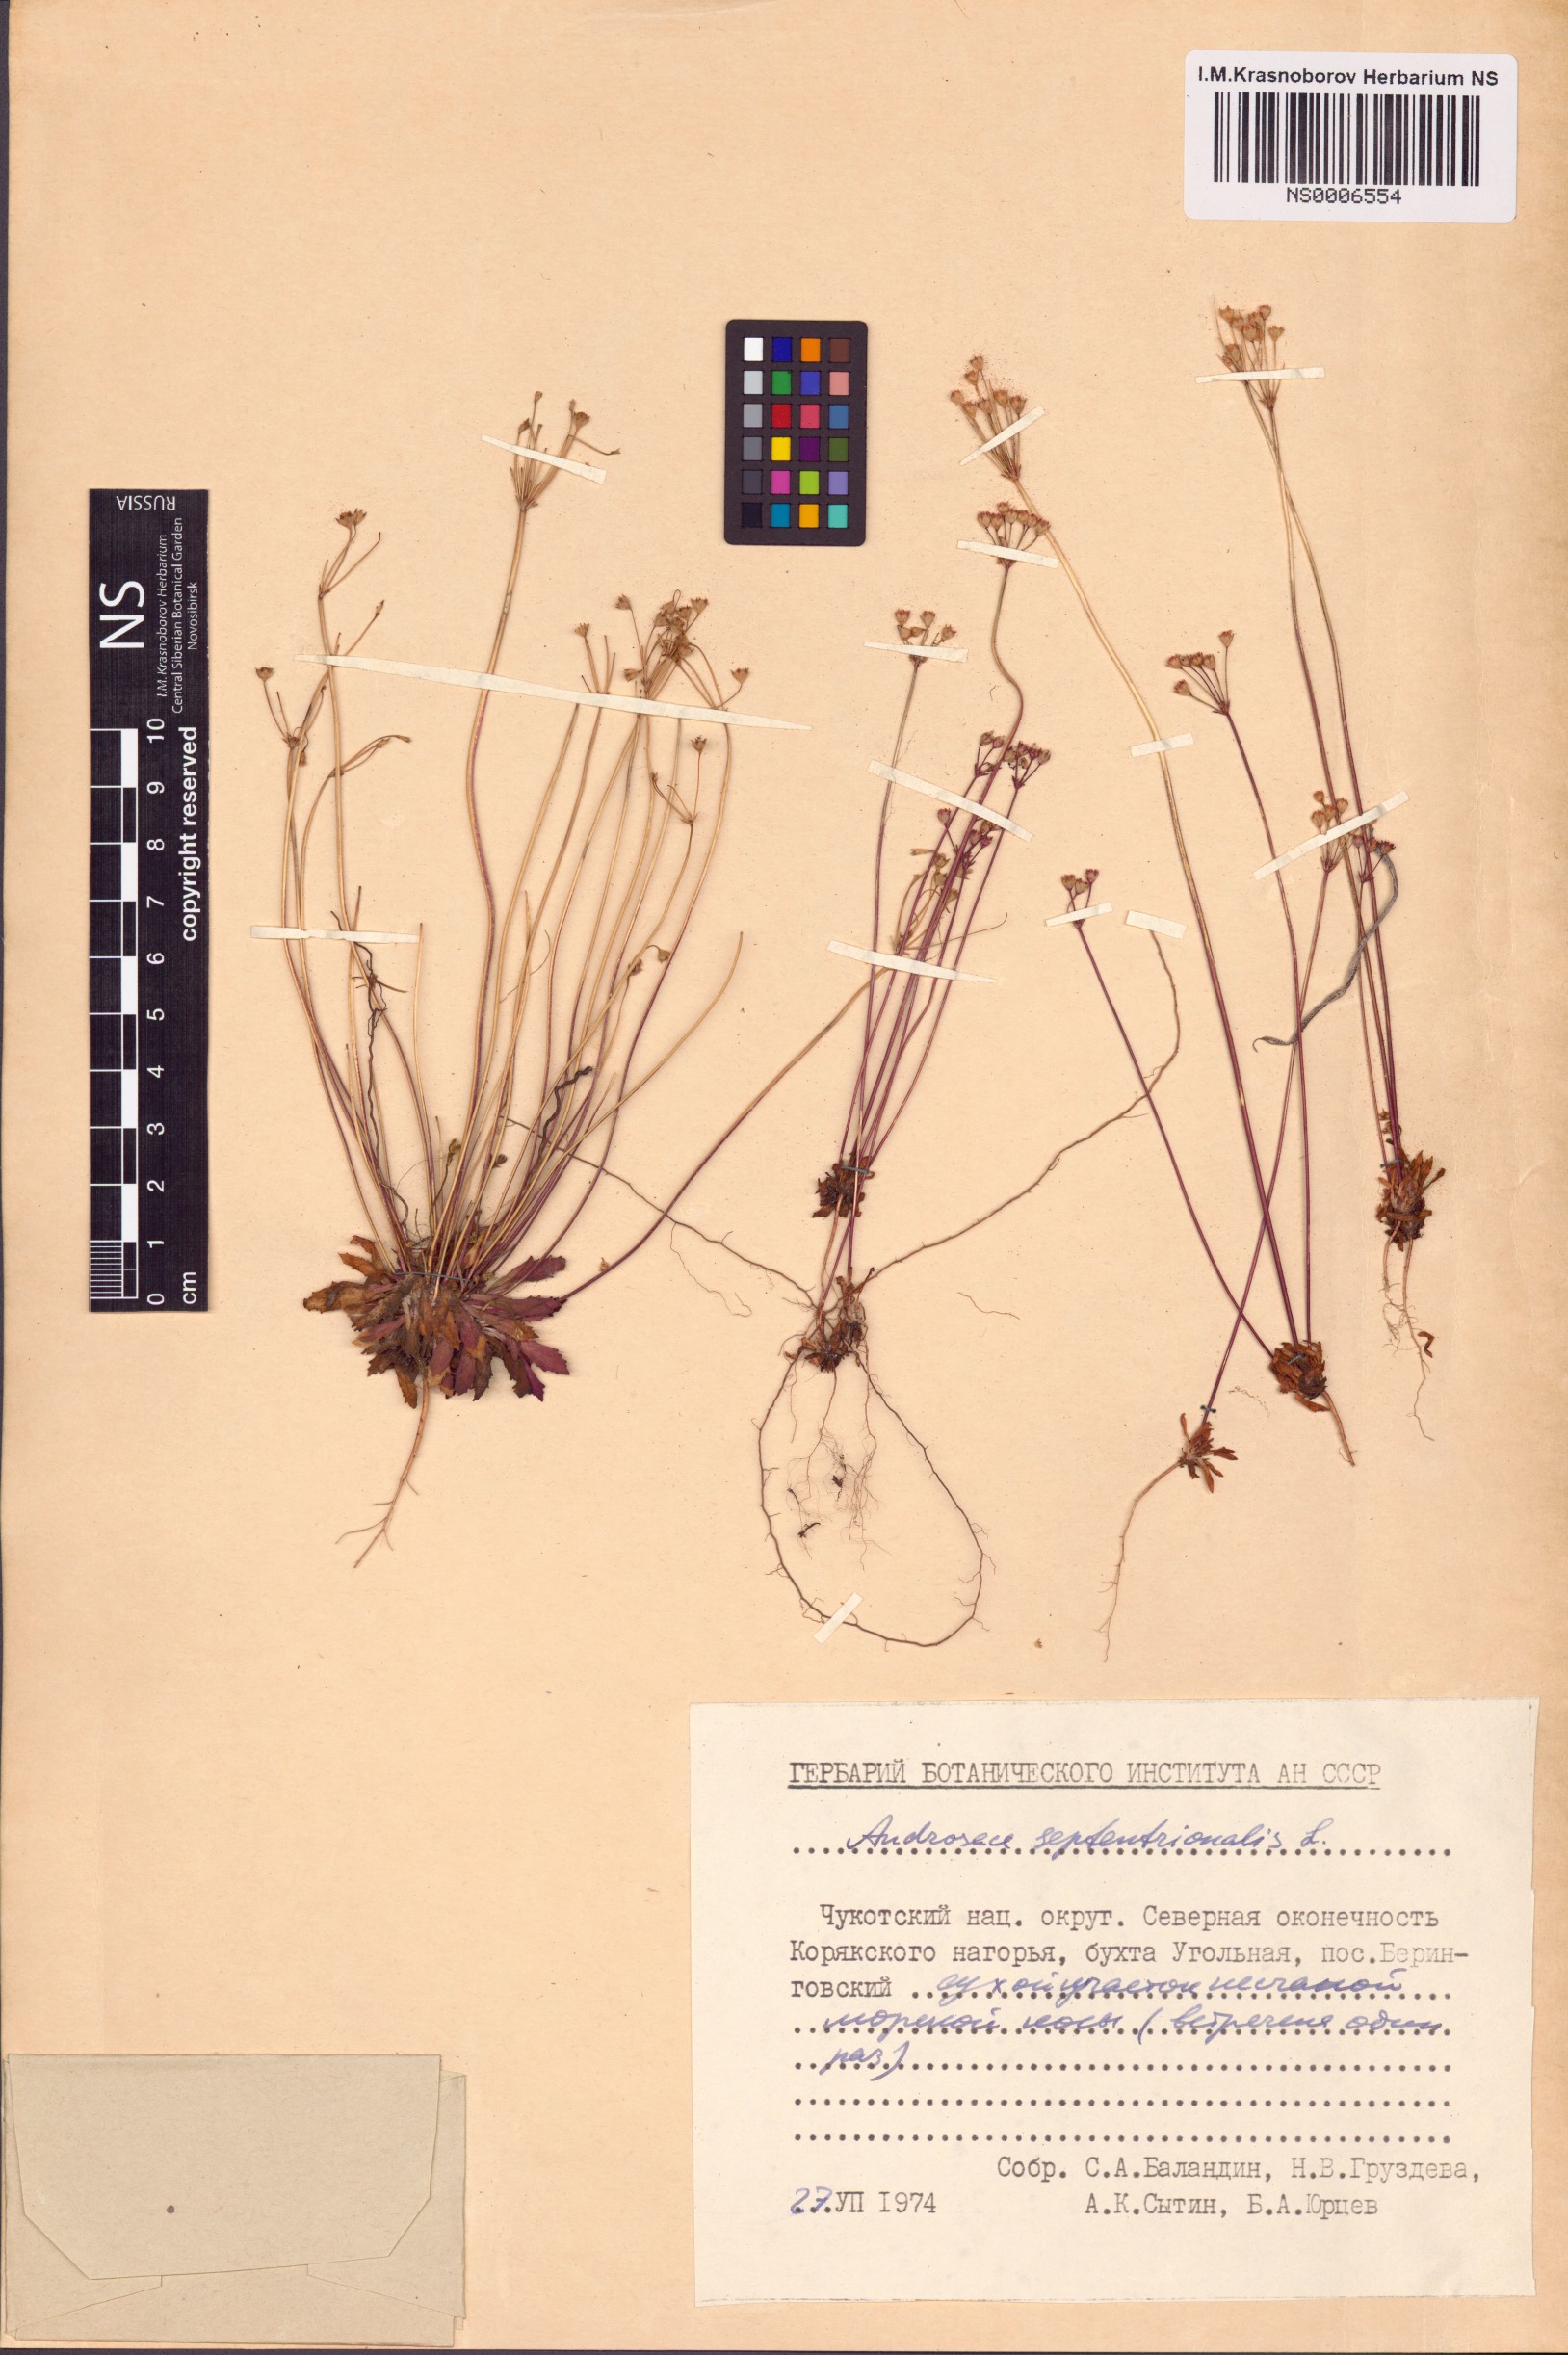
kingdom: Plantae
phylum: Tracheophyta
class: Magnoliopsida
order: Ericales
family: Primulaceae
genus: Androsace
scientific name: Androsace septentrionalis
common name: Hairy northern fairy-candelabra
